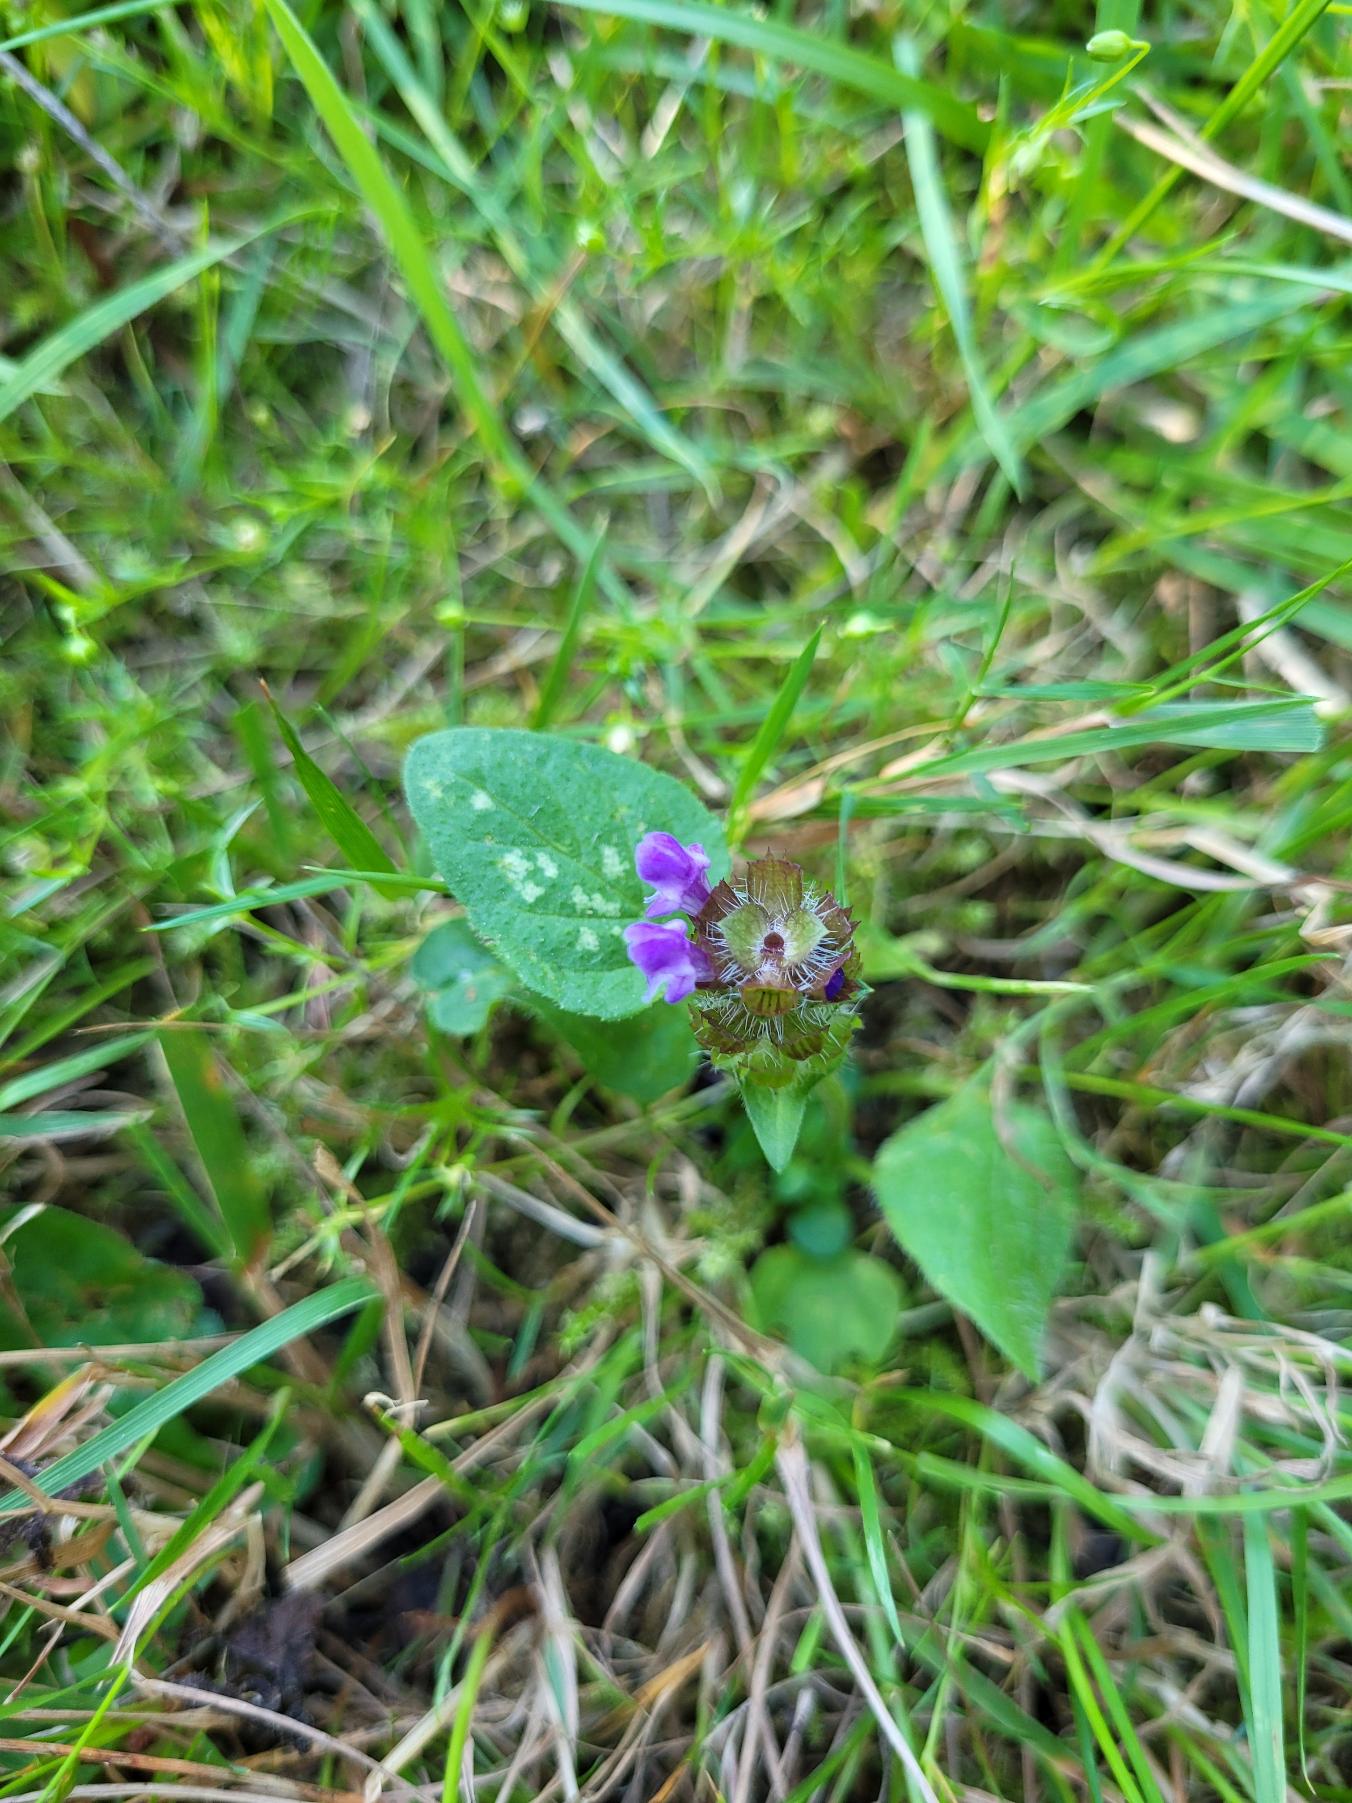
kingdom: Plantae
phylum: Tracheophyta
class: Magnoliopsida
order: Lamiales
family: Lamiaceae
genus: Prunella
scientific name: Prunella vulgaris
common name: Almindelig brunelle
